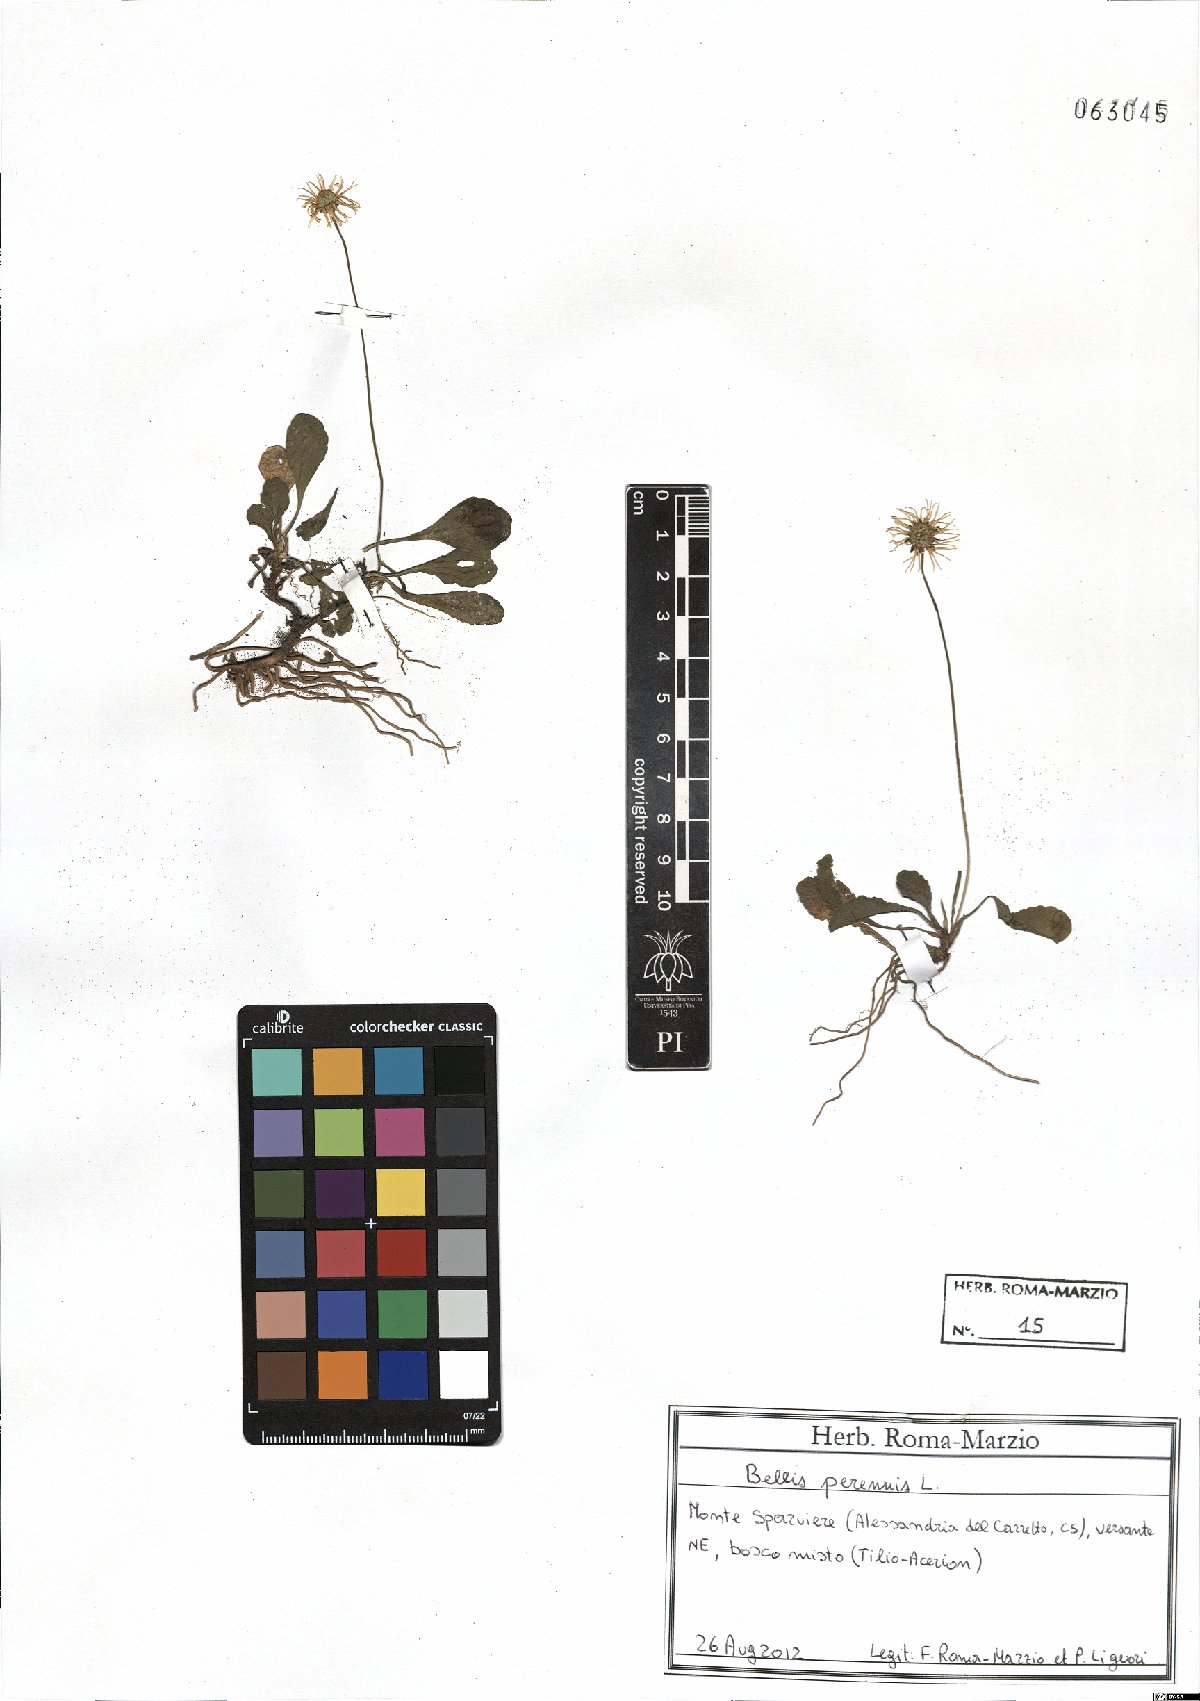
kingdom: Plantae
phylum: Tracheophyta
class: Magnoliopsida
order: Asterales
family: Asteraceae
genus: Bellis
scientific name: Bellis perennis
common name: Lawndaisy
